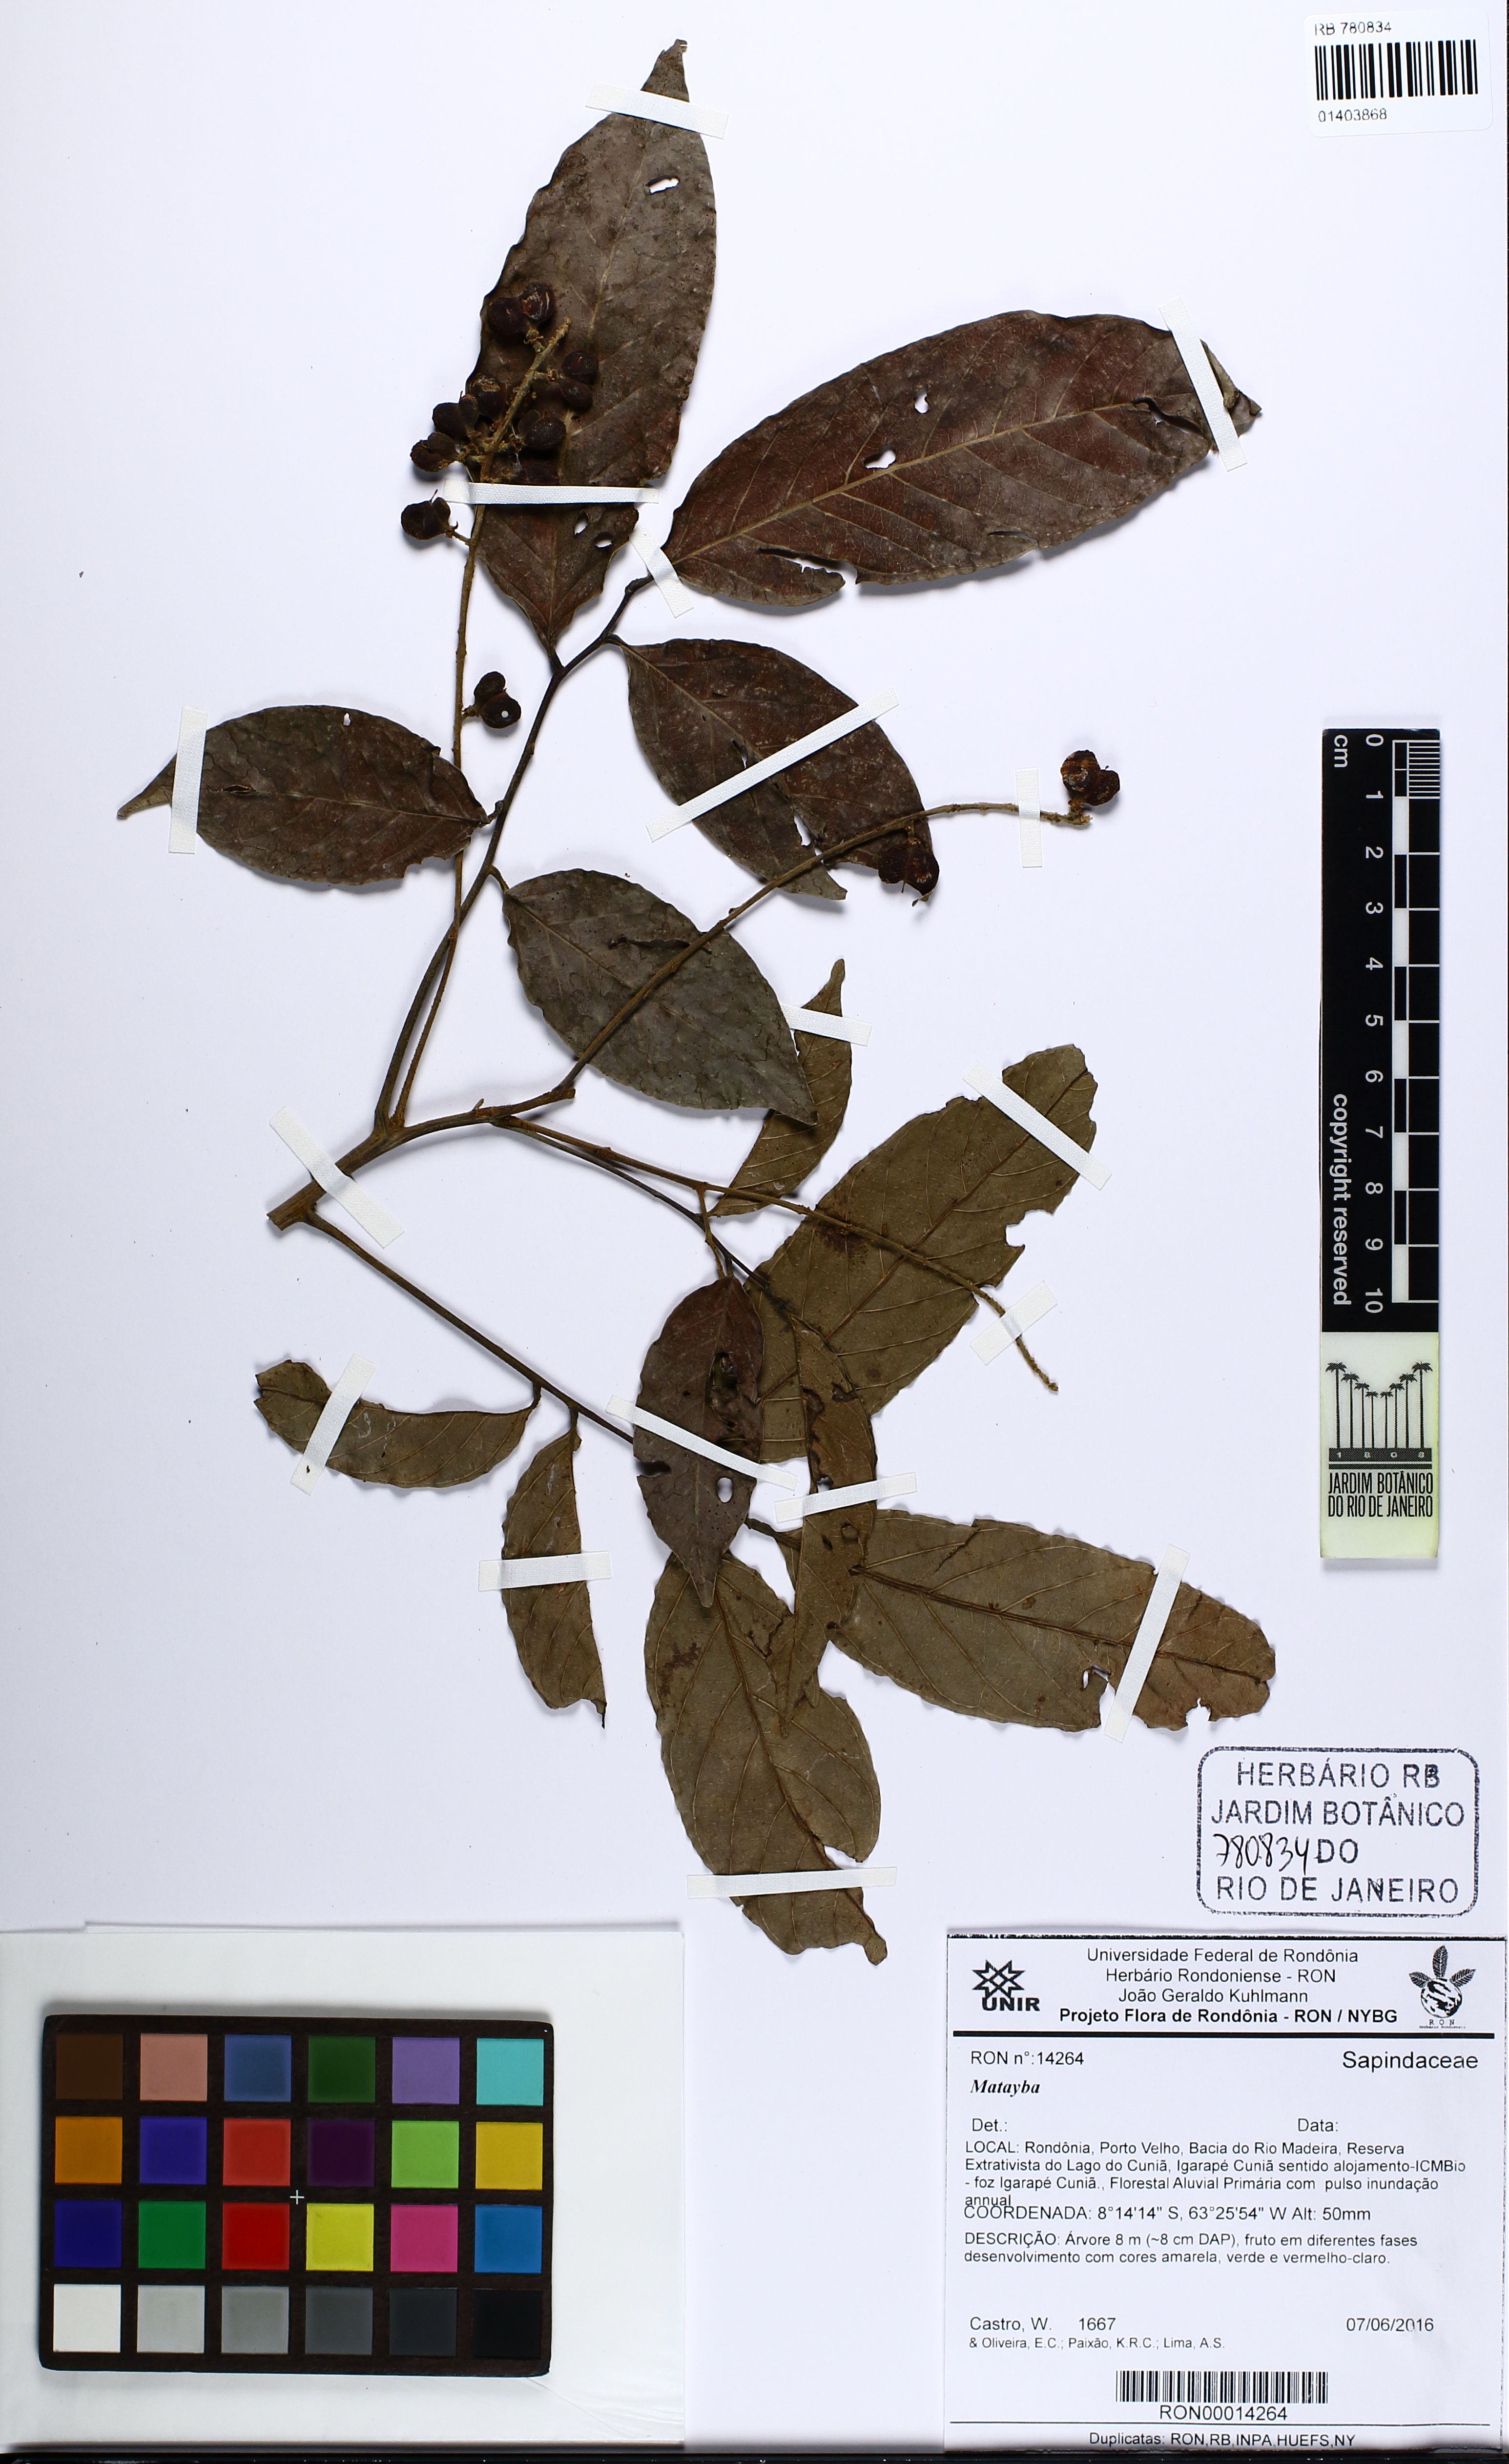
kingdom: Plantae
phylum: Tracheophyta
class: Magnoliopsida
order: Sapindales
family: Sapindaceae
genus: Matayba
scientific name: Matayba
